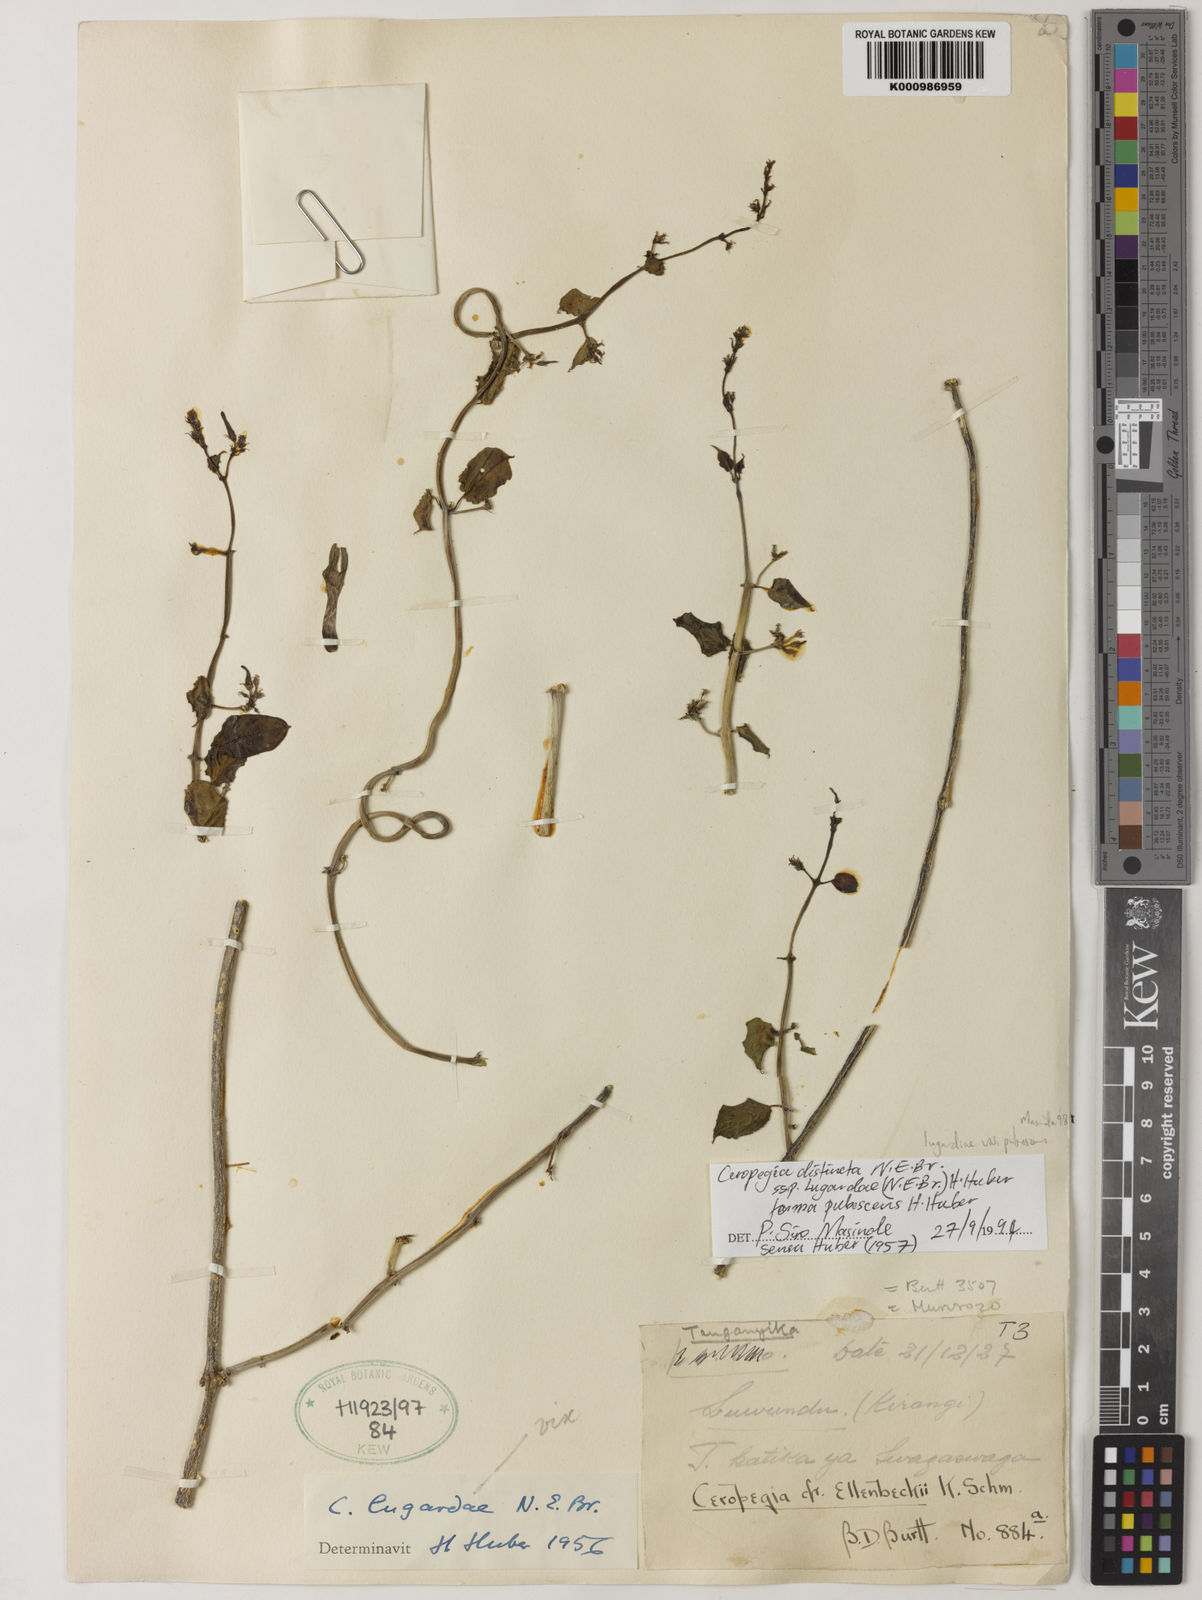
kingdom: Plantae
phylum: Tracheophyta
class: Magnoliopsida
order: Gentianales
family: Apocynaceae
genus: Ceropegia
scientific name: Ceropegia lugardiae
